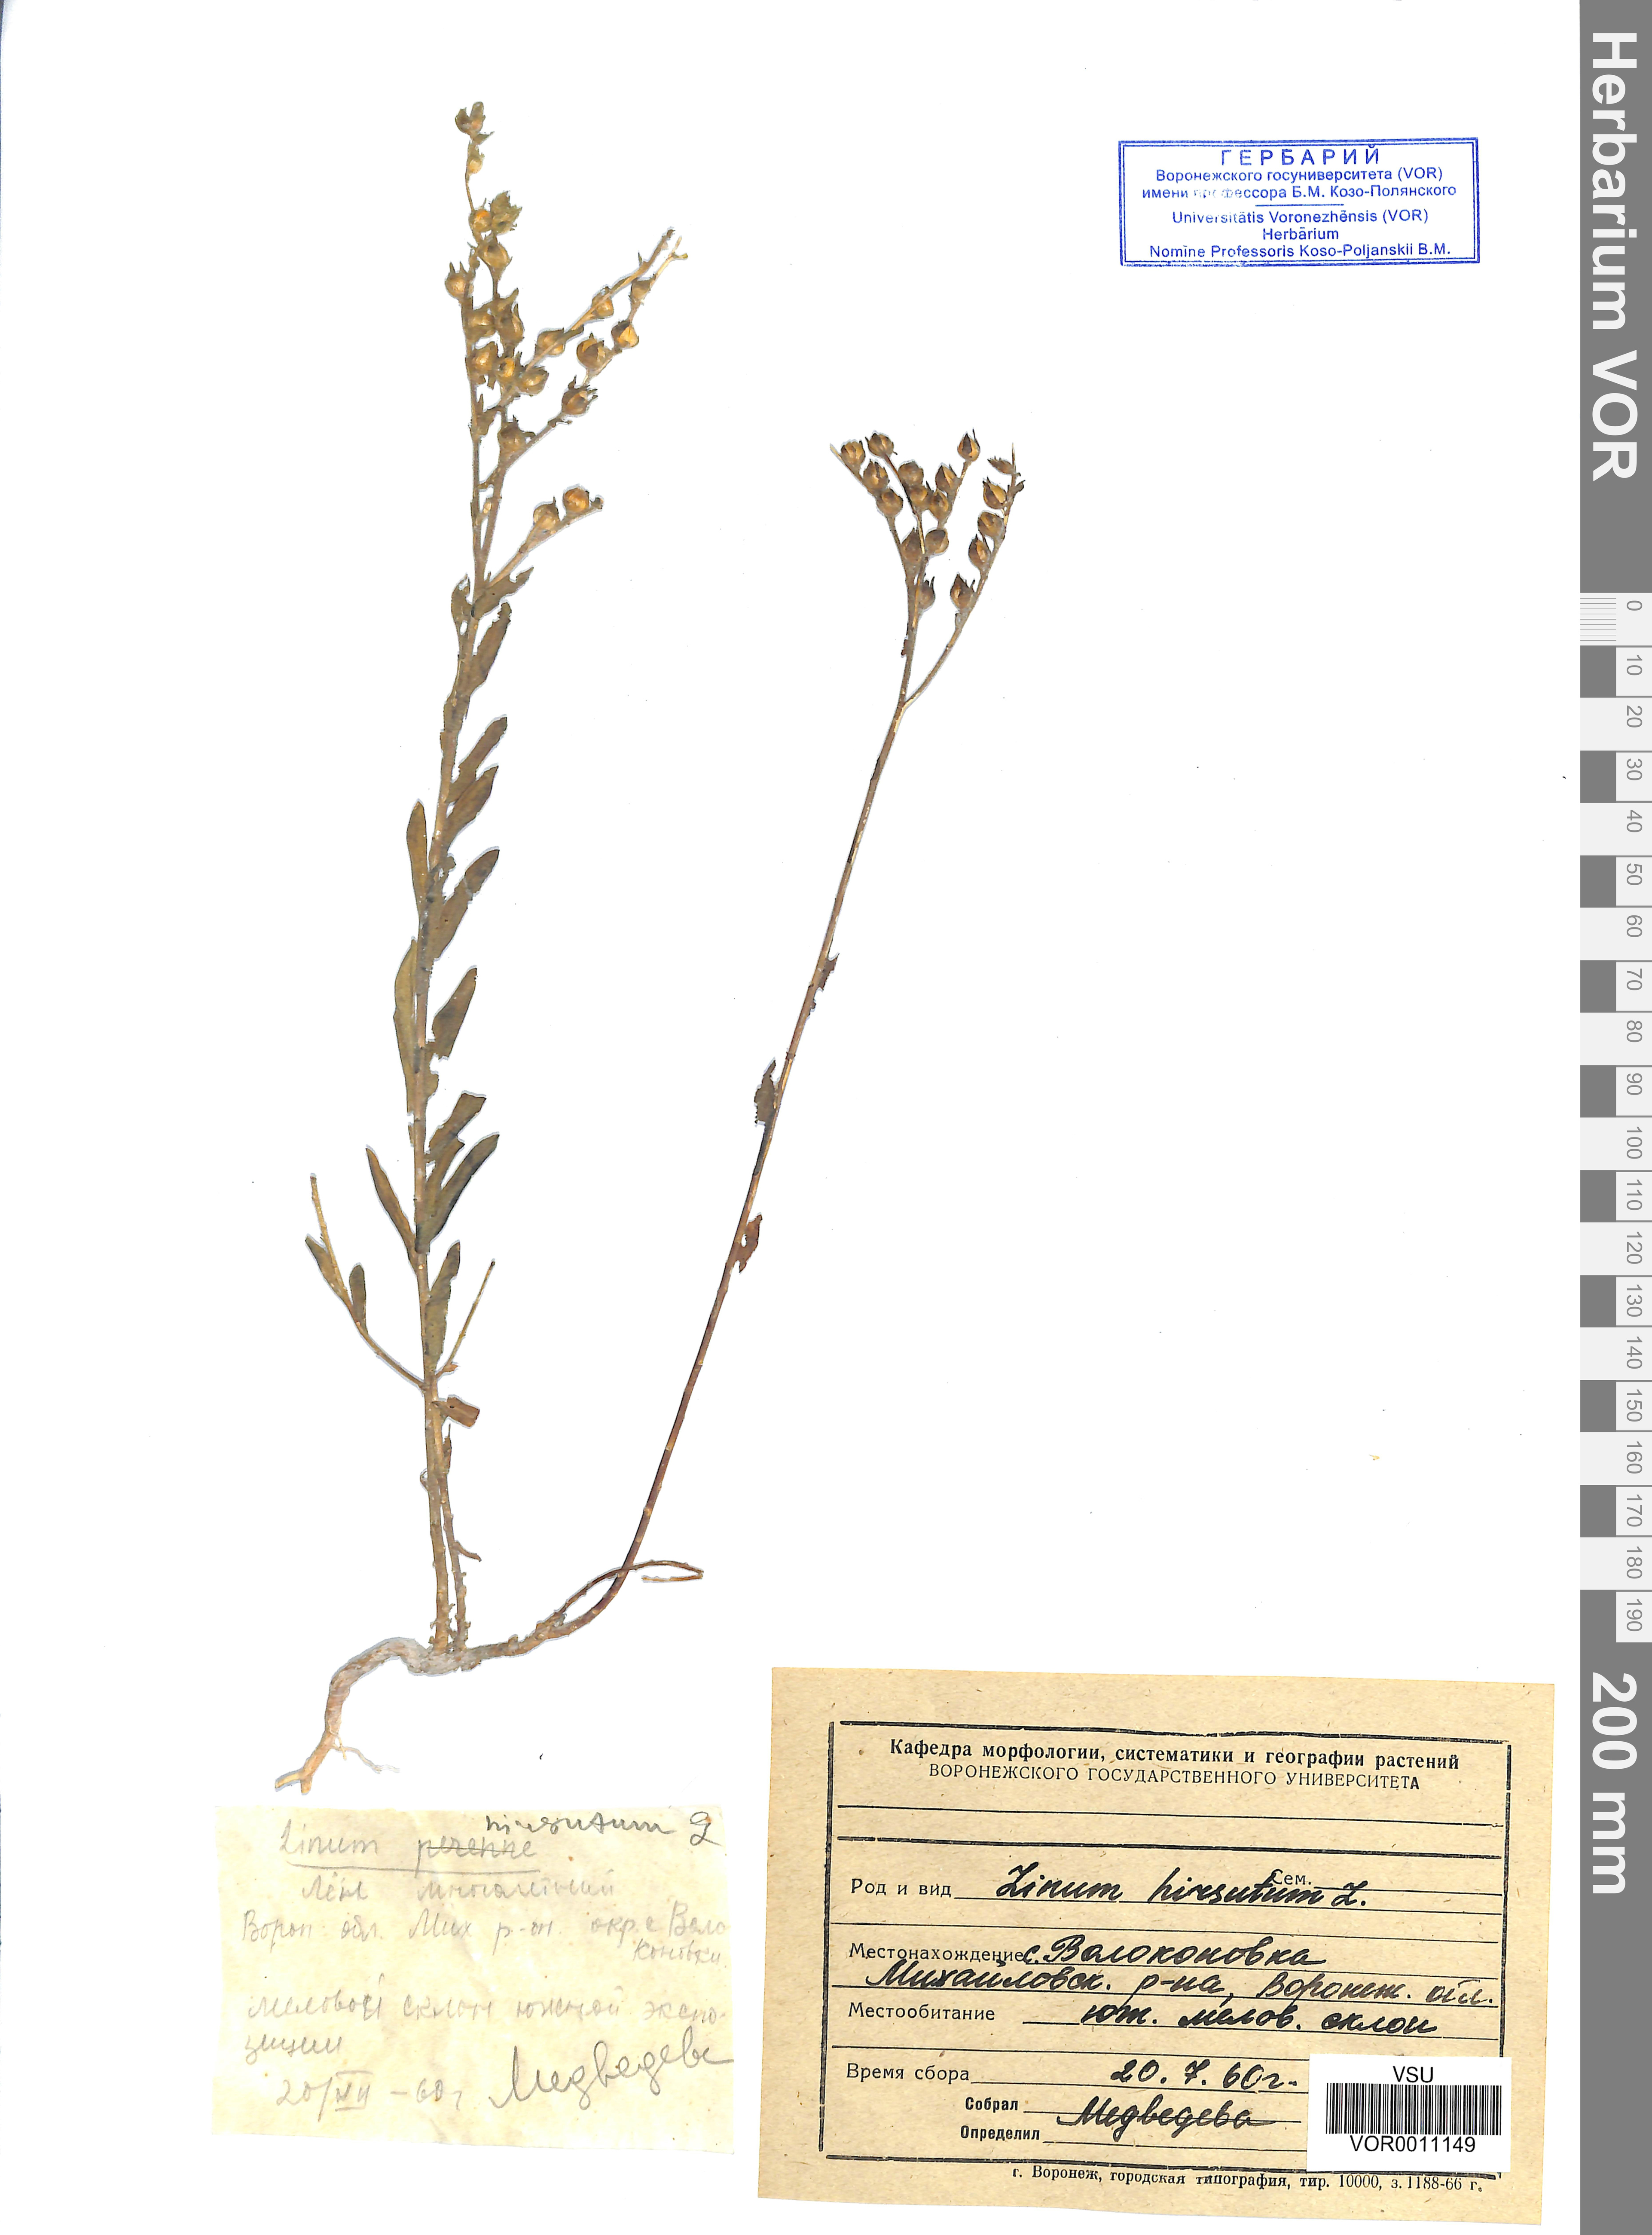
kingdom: Plantae
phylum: Tracheophyta
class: Magnoliopsida
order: Malpighiales
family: Linaceae
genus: Linum
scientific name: Linum hirsutum
